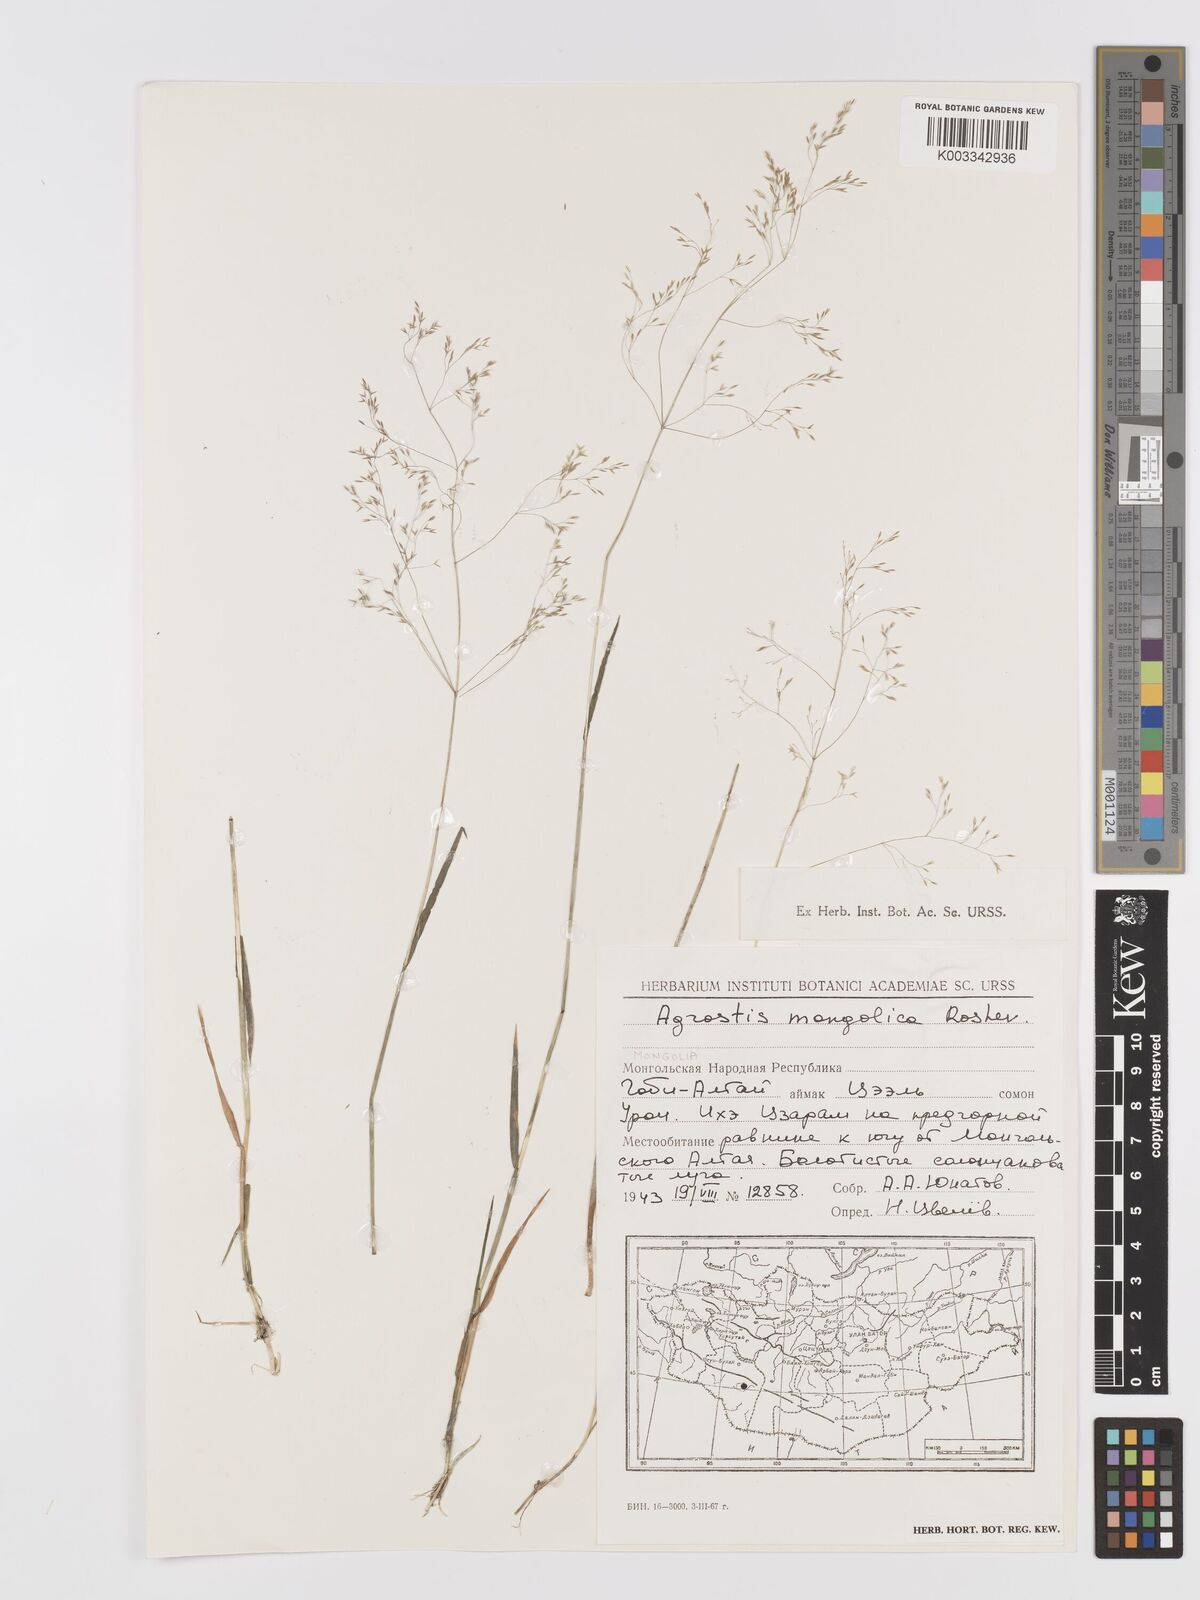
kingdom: Plantae
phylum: Tracheophyta
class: Liliopsida
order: Poales
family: Poaceae
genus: Agrostis
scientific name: Agrostis divaricatissima
